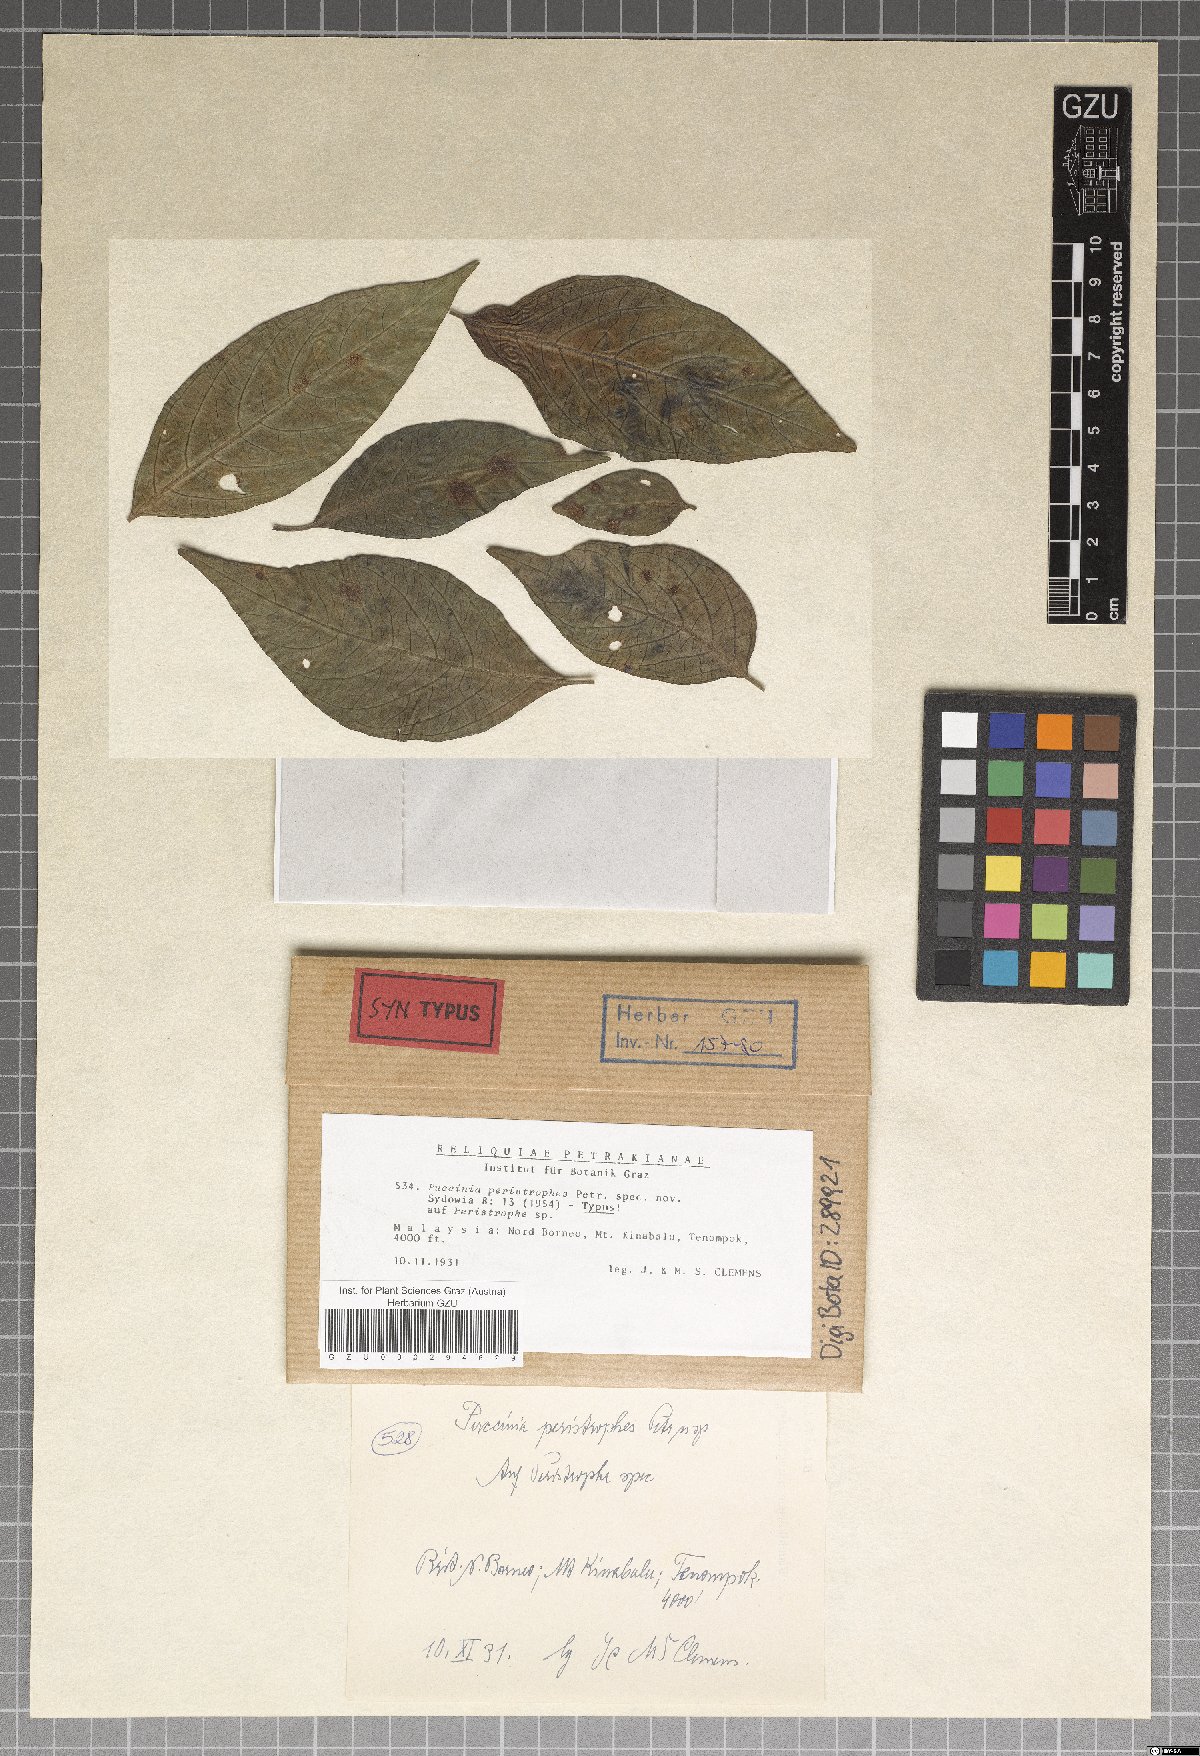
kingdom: Fungi
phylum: Basidiomycota
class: Pucciniomycetes
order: Pucciniales
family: Pucciniaceae
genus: Puccinia
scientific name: Puccinia peristrophes
